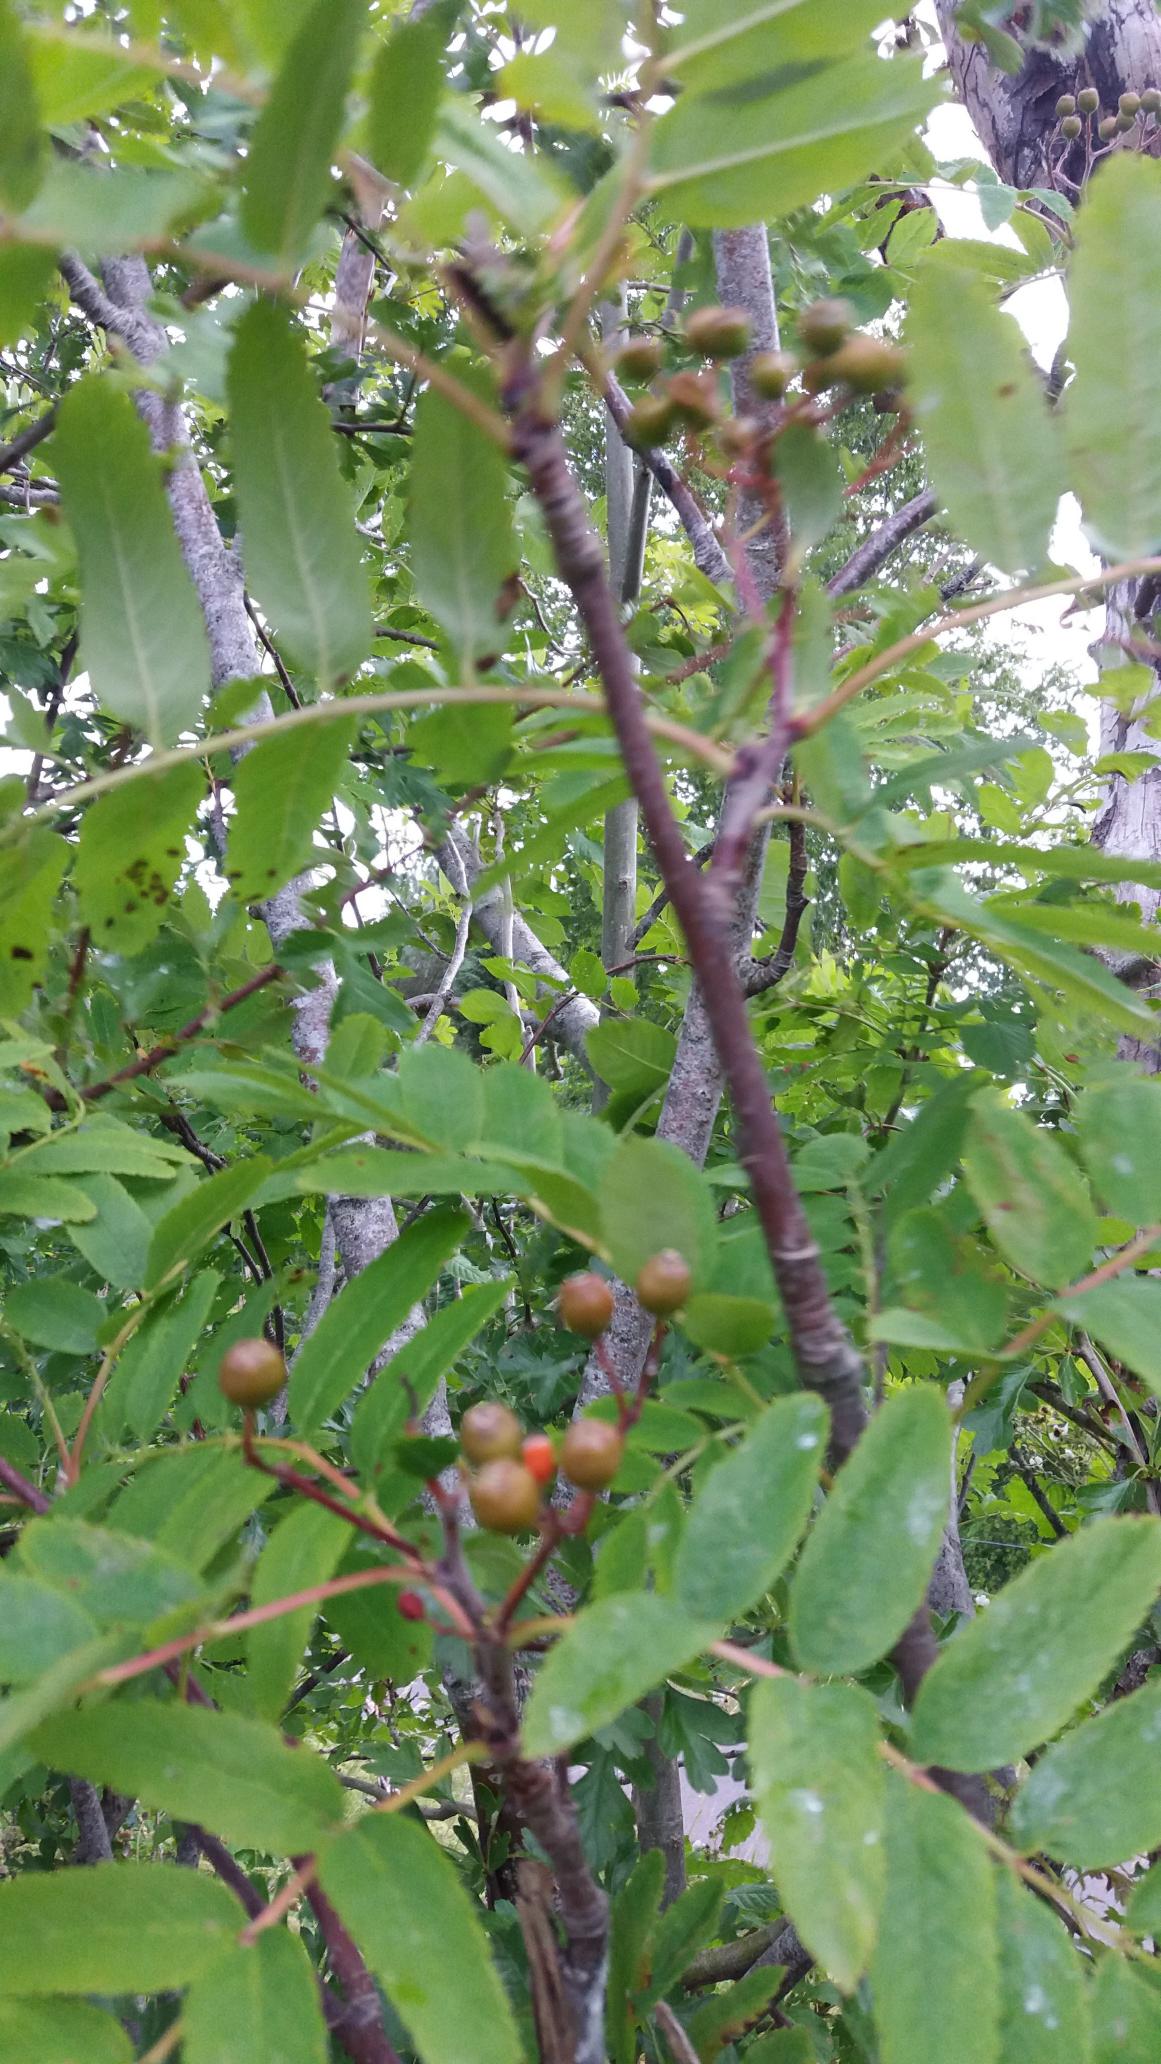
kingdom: Plantae
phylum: Tracheophyta
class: Magnoliopsida
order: Rosales
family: Rosaceae
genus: Sorbus
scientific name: Sorbus aucuparia
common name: Almindelig røn
